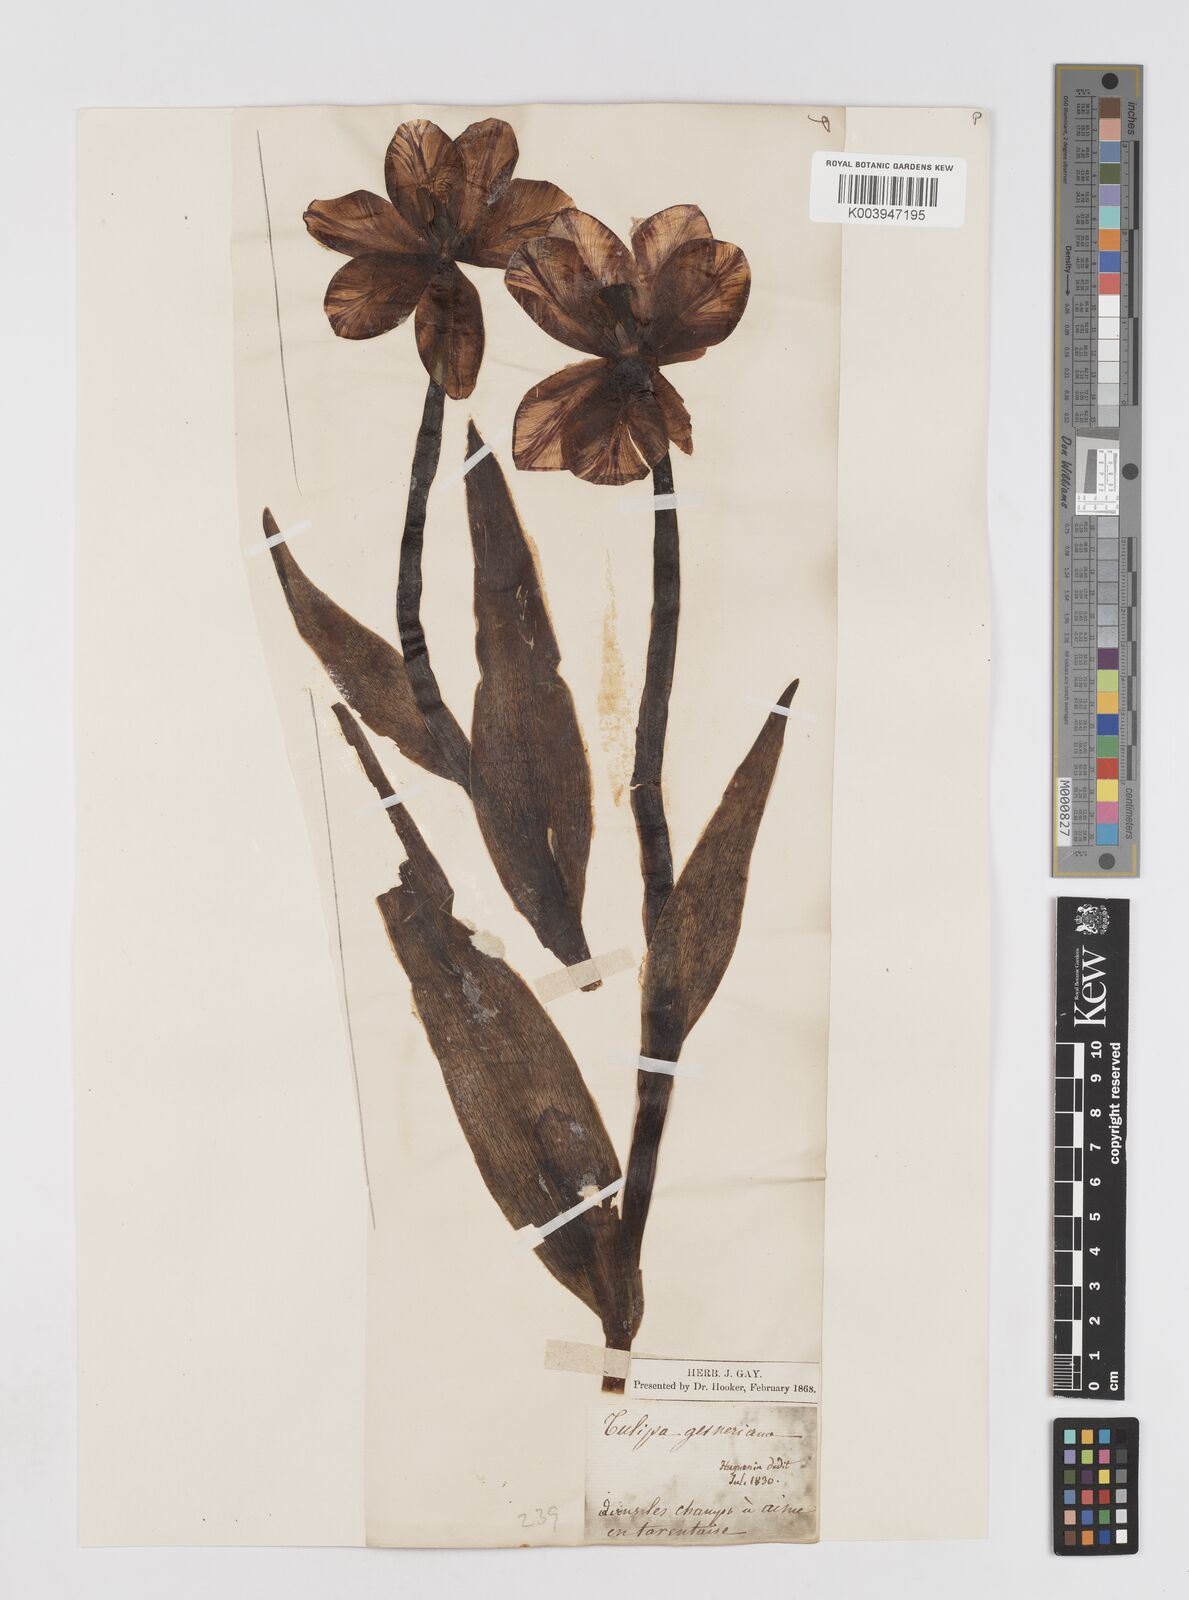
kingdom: Plantae
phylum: Tracheophyta
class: Liliopsida
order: Liliales
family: Liliaceae
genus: Tulipa
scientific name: Tulipa gesneriana
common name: Garden tulip
